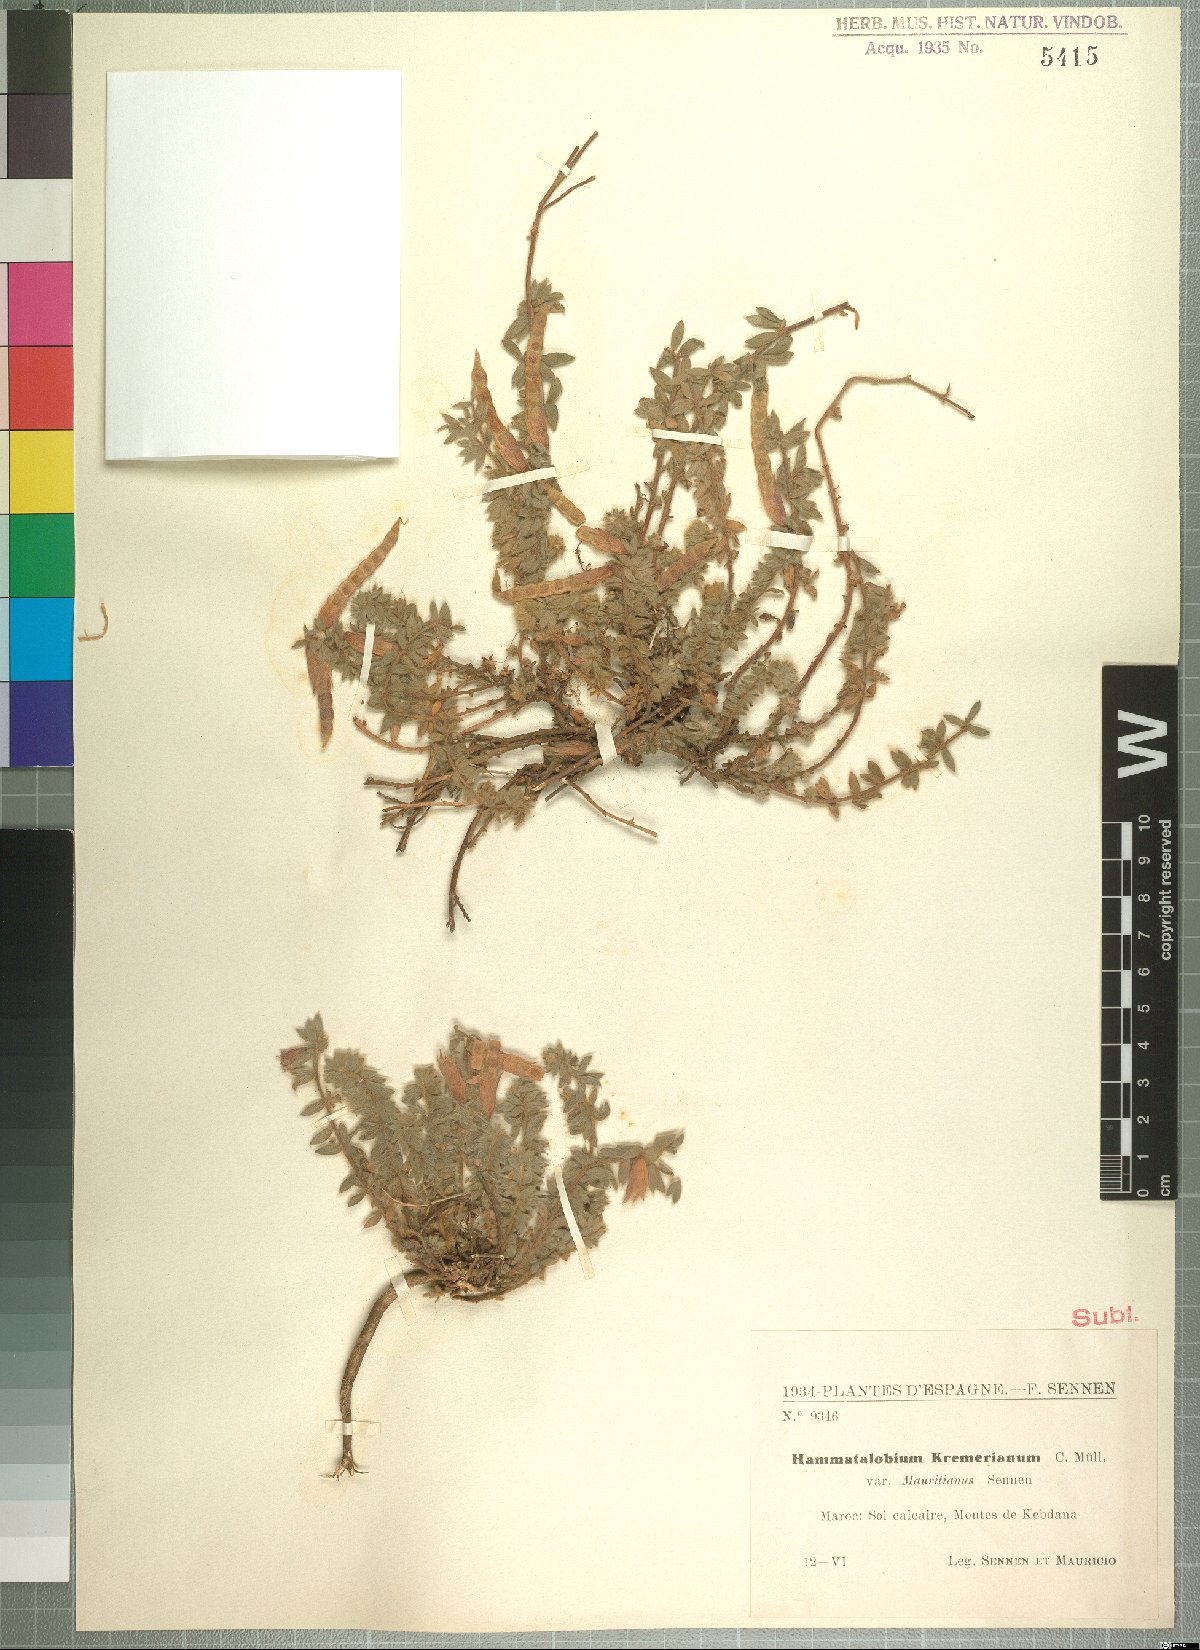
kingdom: Plantae
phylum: Tracheophyta
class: Magnoliopsida
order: Fabales
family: Fabaceae
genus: Hammatolobium
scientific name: Hammatolobium kremerianum
